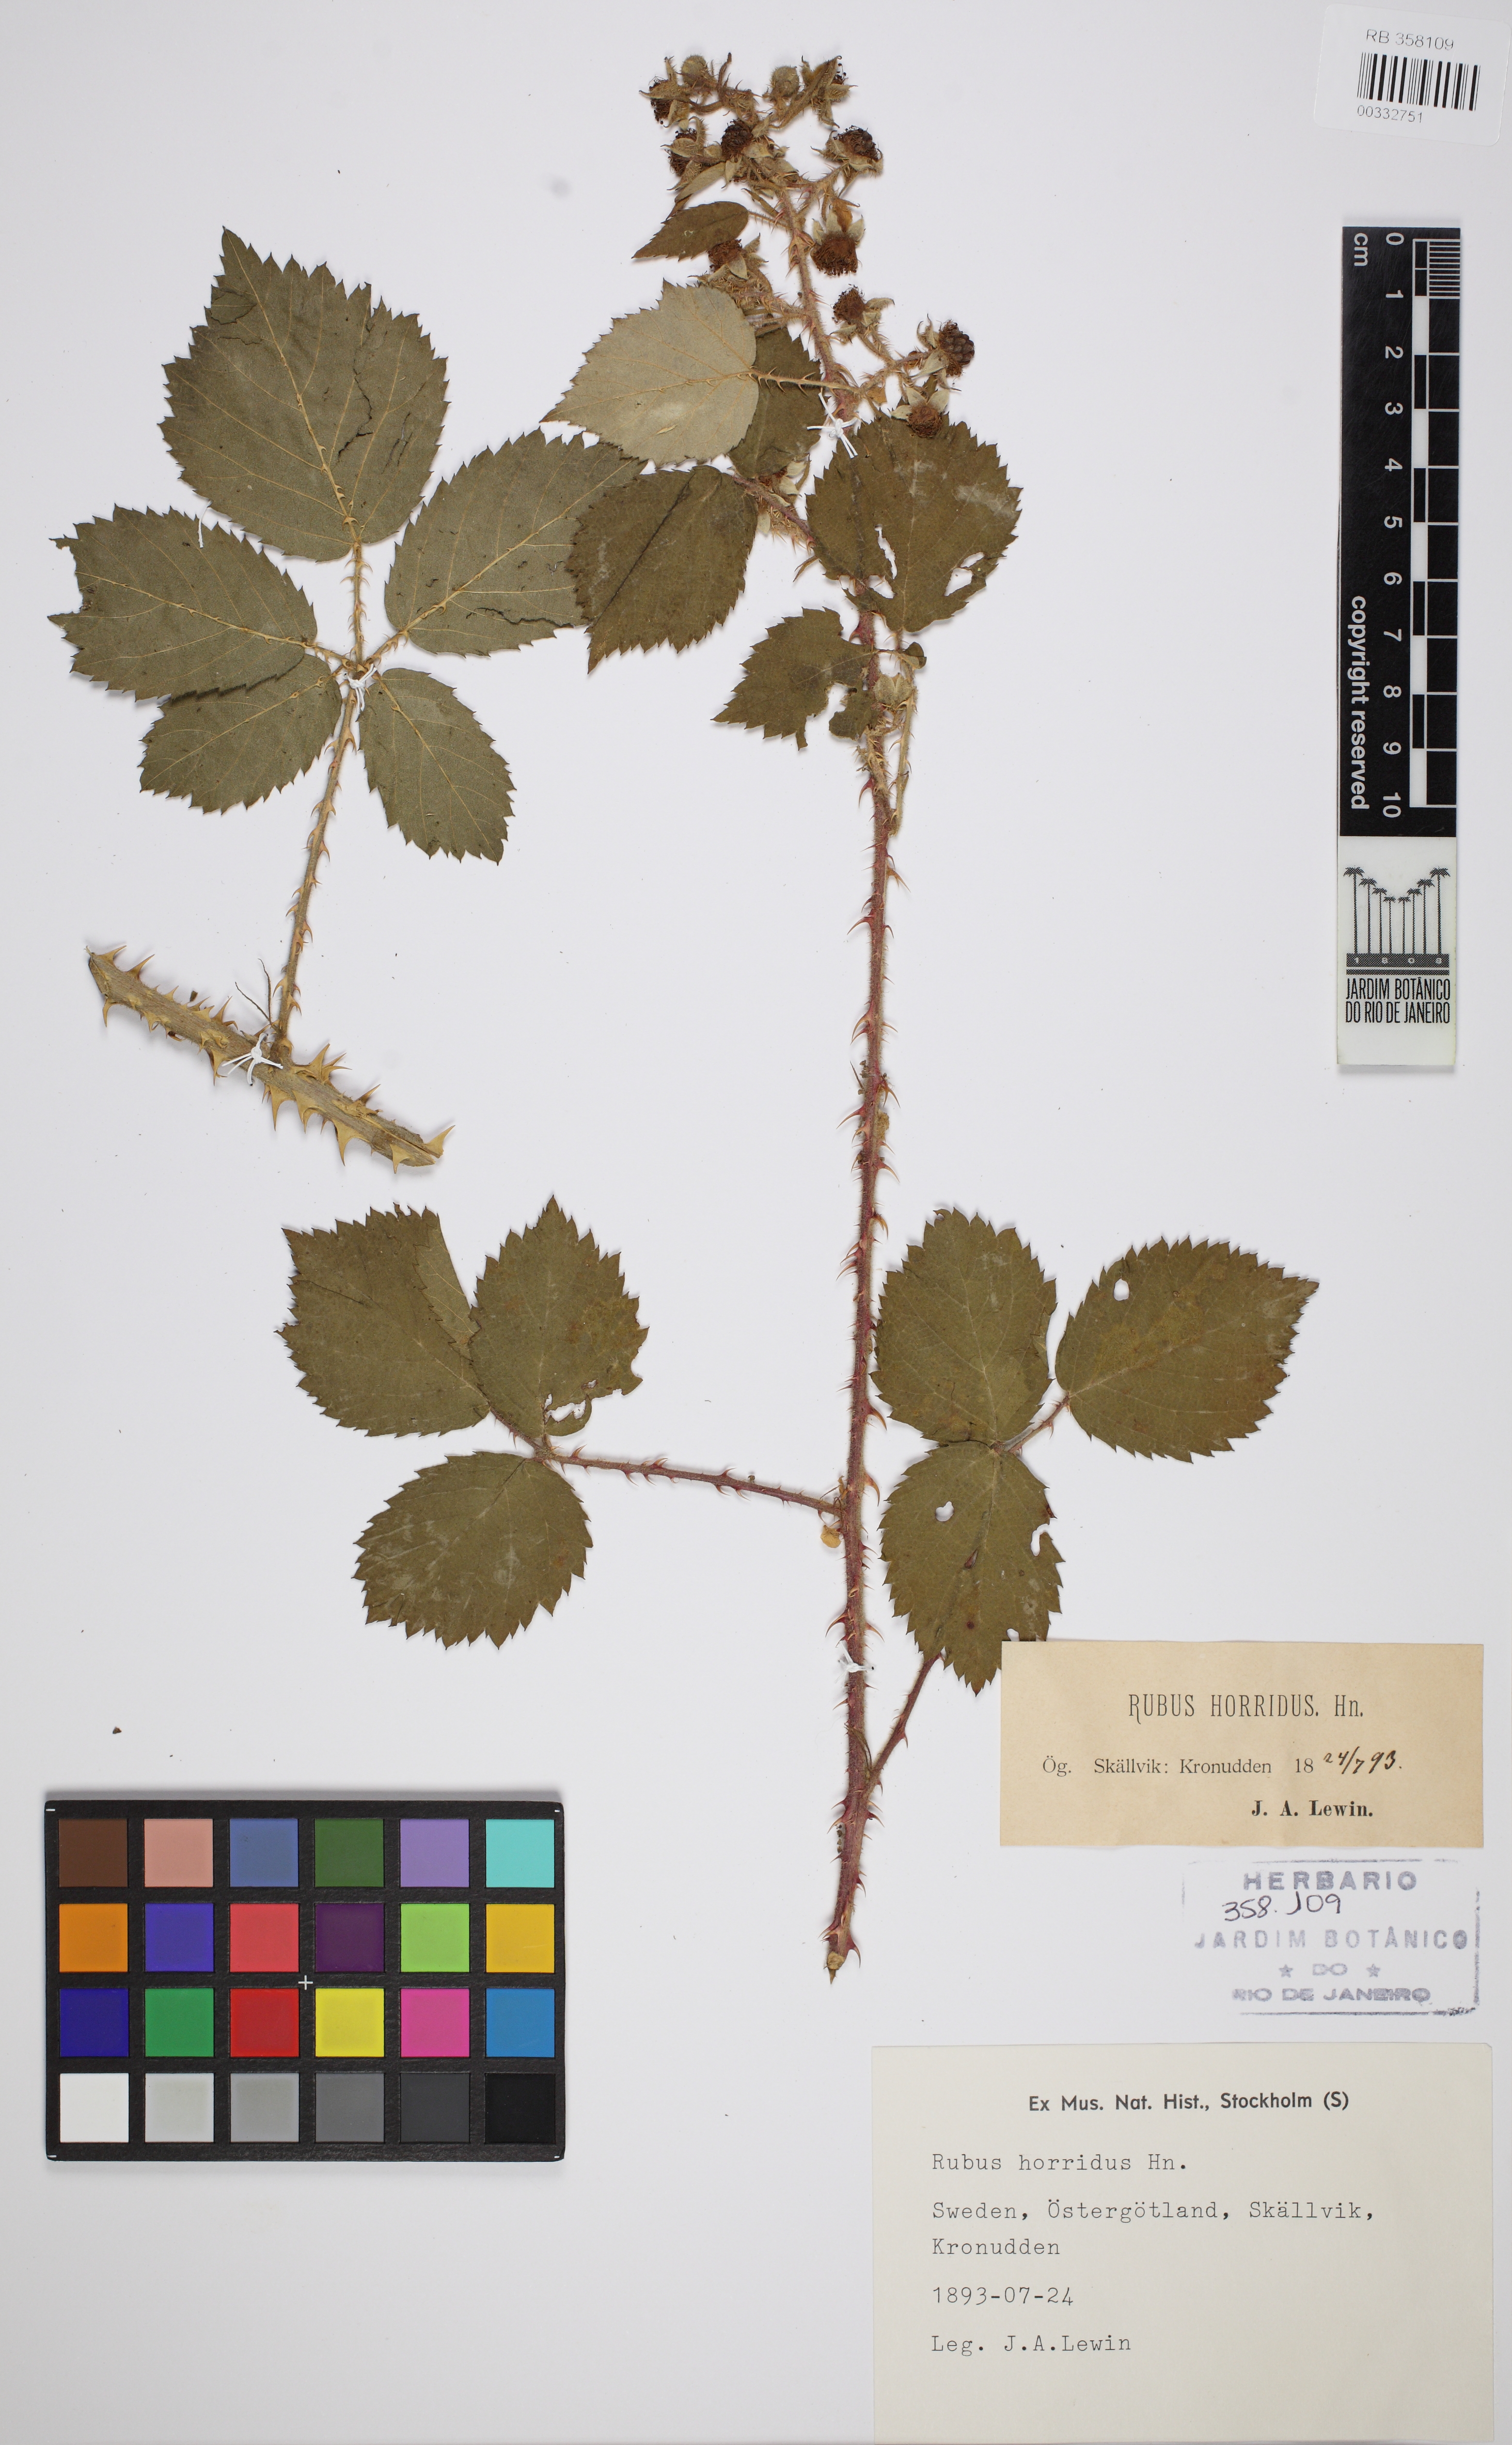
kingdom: Plantae
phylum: Tracheophyta
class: Magnoliopsida
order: Rosales
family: Rosaceae
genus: Rubus
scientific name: Rubus hartmanii
